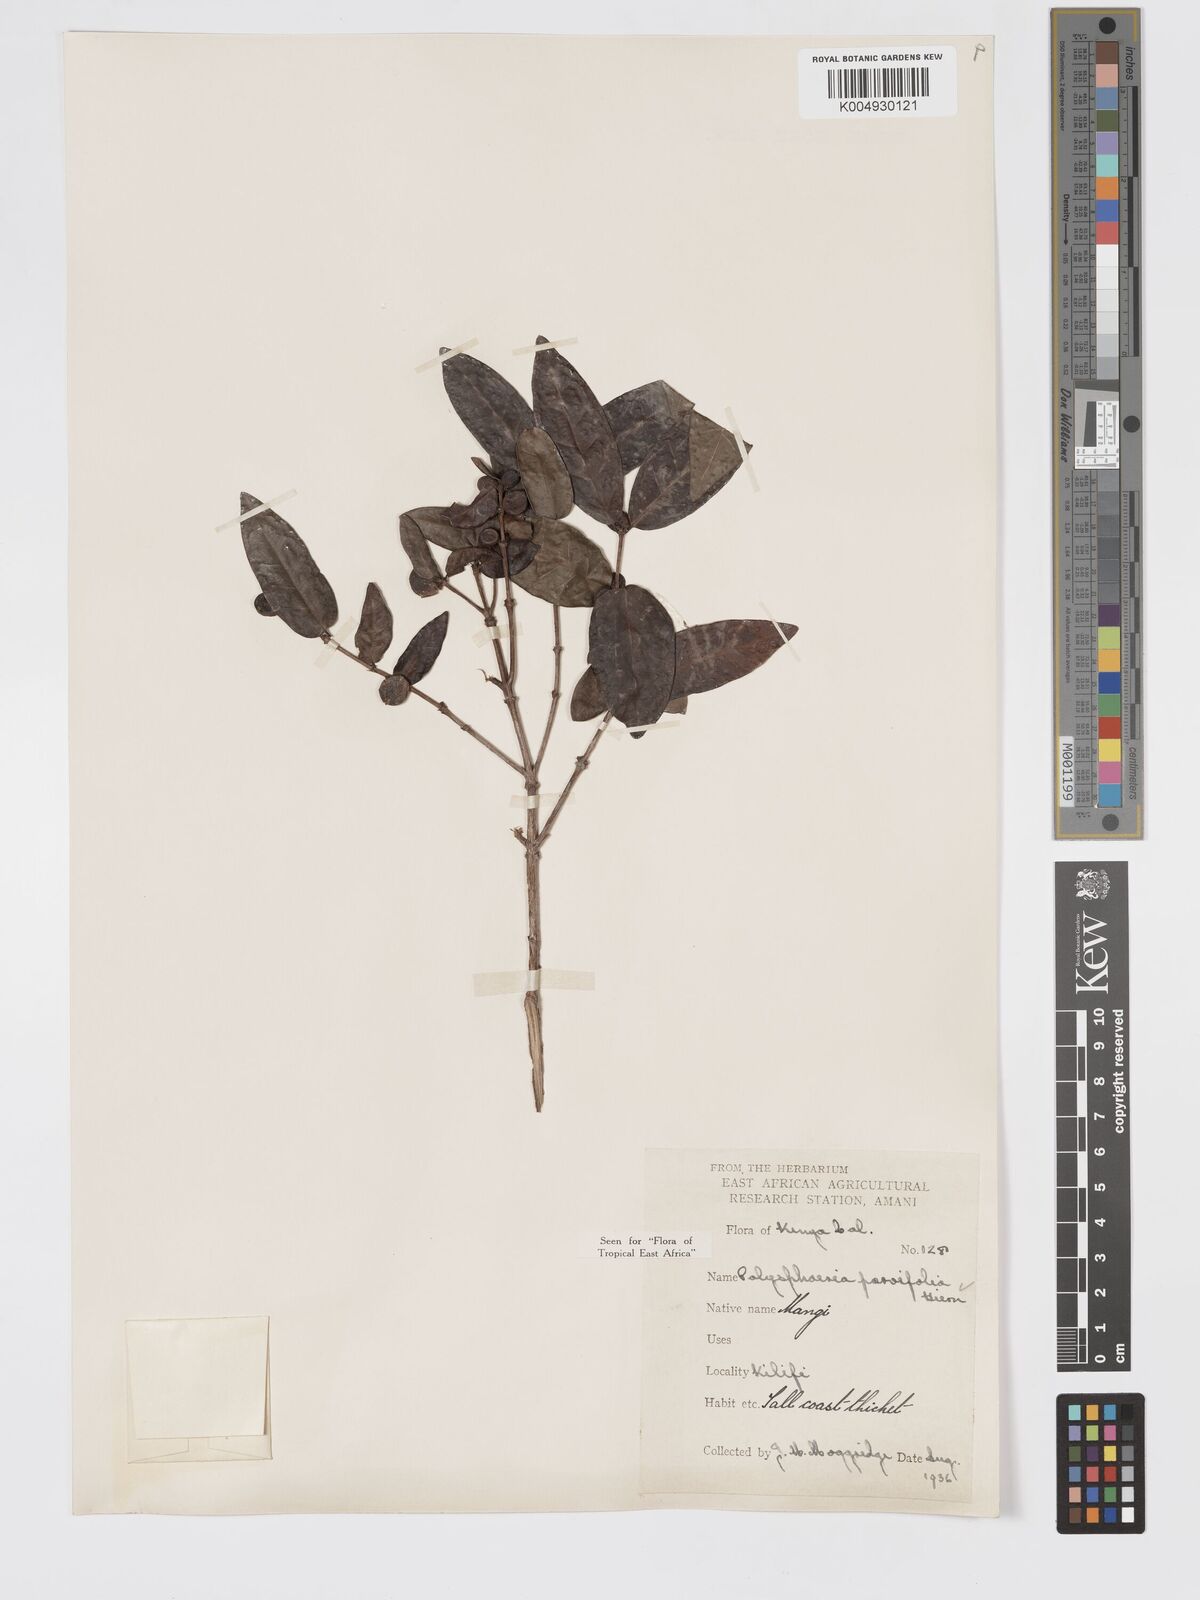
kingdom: Plantae
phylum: Tracheophyta
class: Magnoliopsida
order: Gentianales
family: Rubiaceae
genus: Polysphaeria
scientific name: Polysphaeria parvifolia
